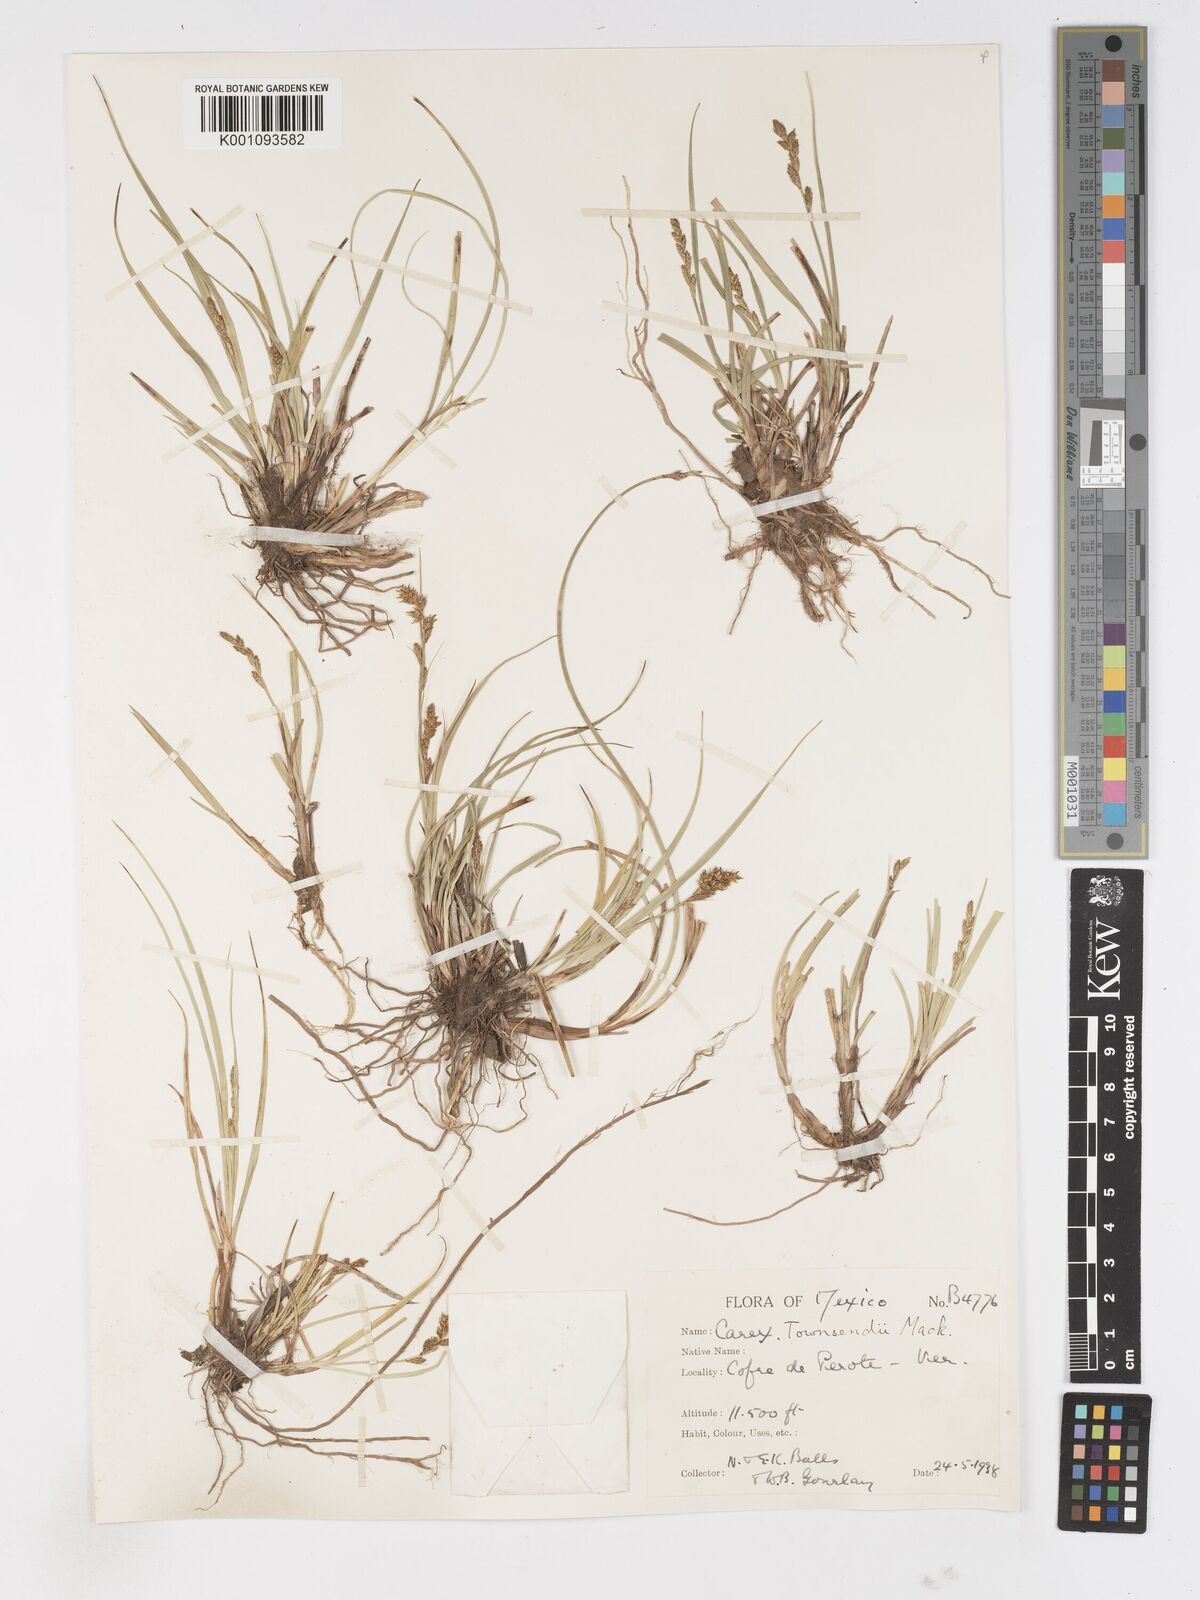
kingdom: Plantae
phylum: Tracheophyta
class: Liliopsida
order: Poales
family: Cyperaceae
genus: Carex
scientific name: Carex townsendii
